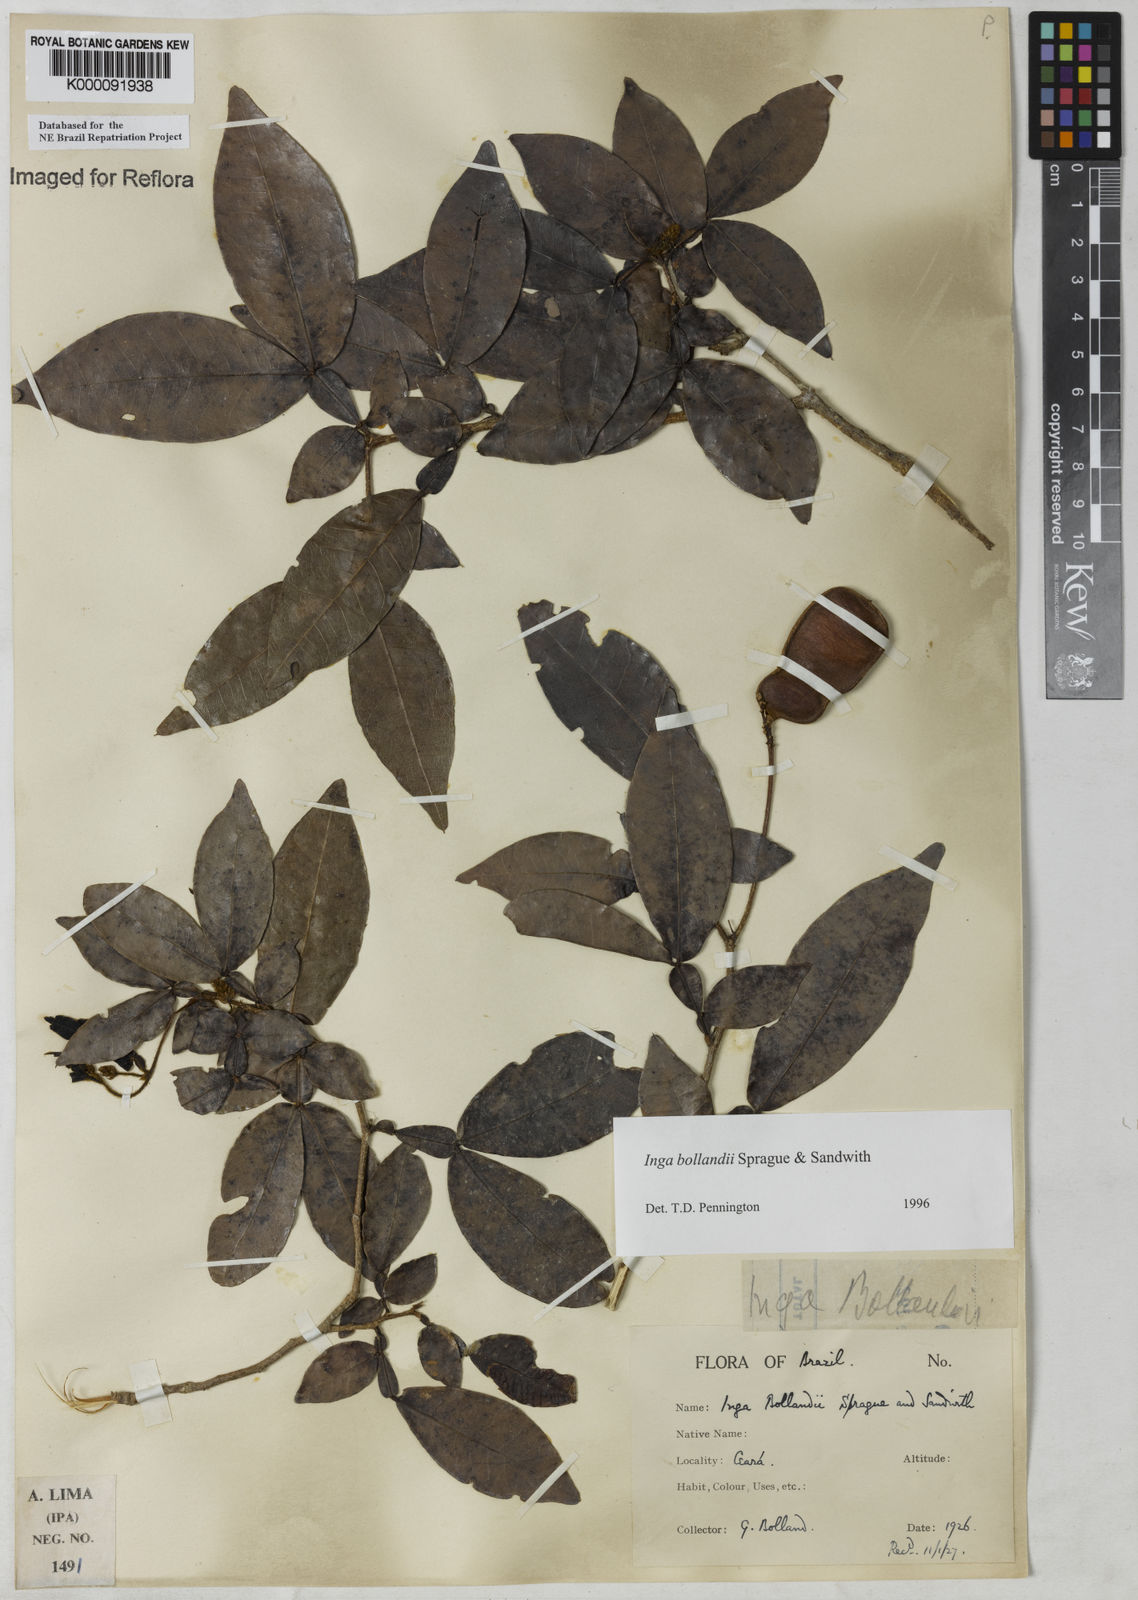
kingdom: Plantae
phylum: Tracheophyta
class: Magnoliopsida
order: Fabales
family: Fabaceae
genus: Inga
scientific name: Inga bollandii
